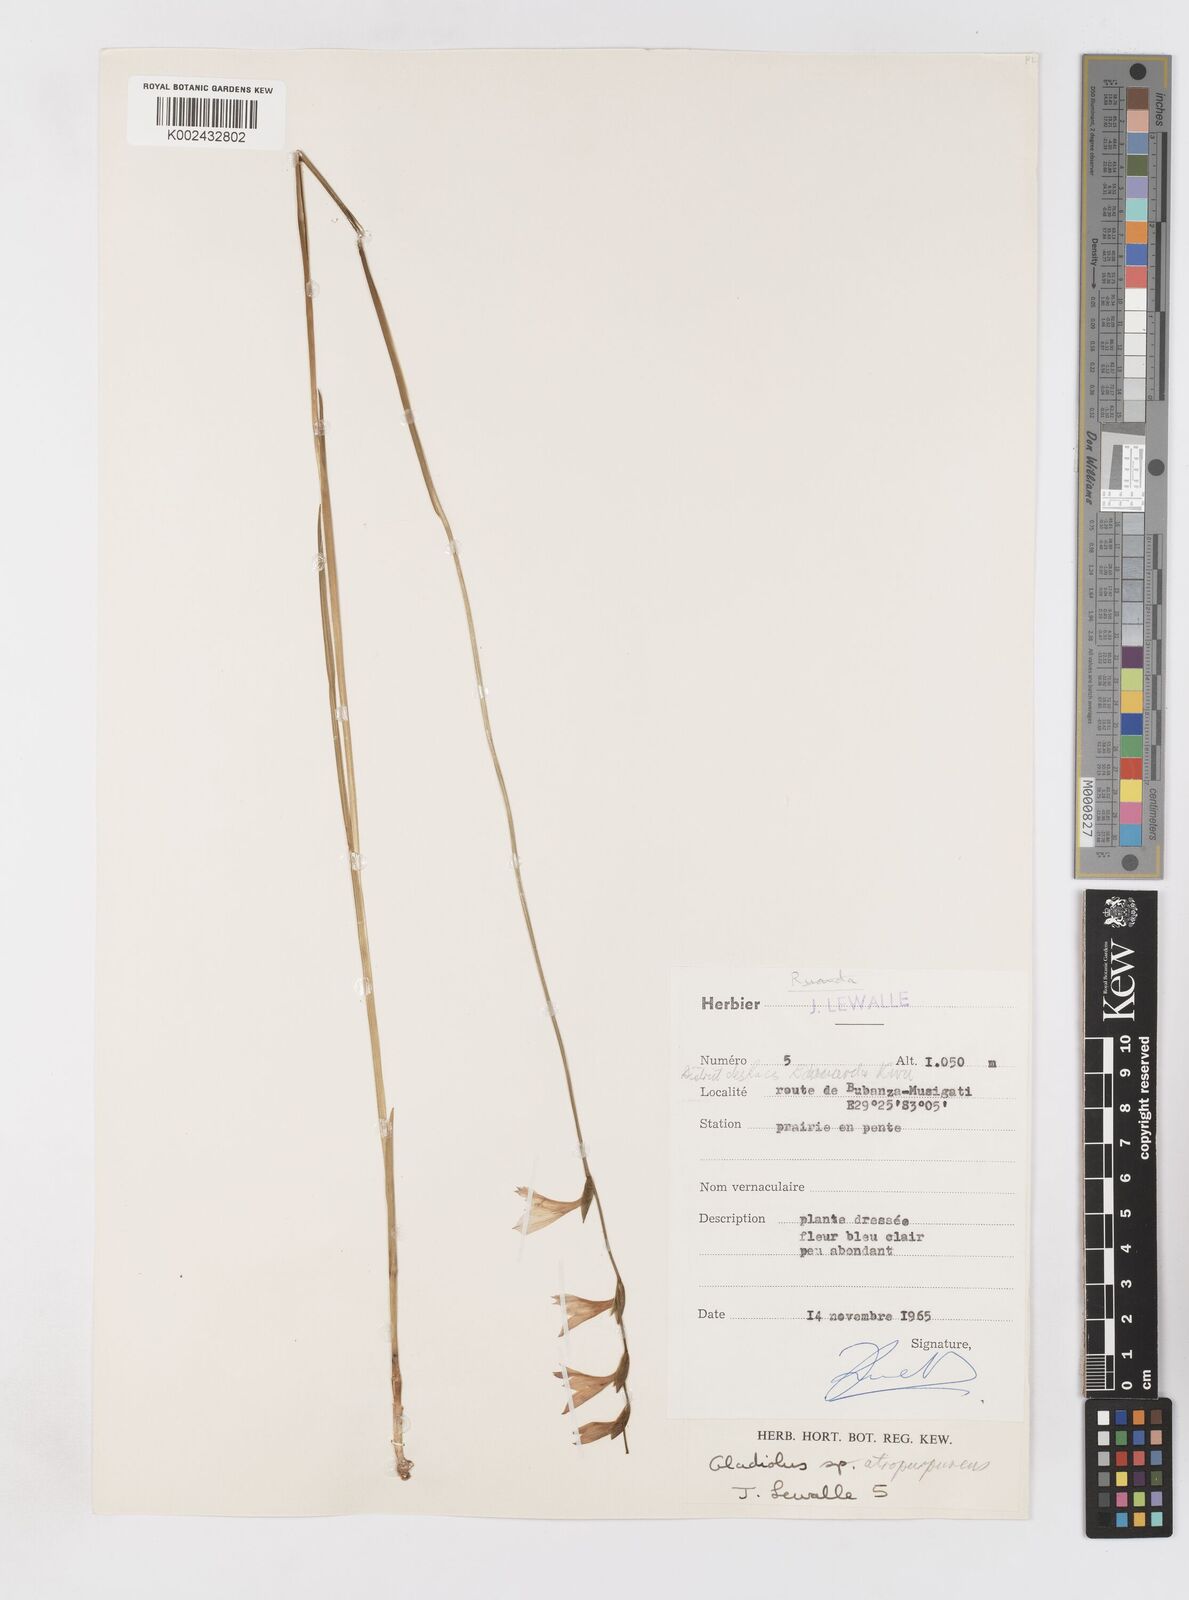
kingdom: Plantae
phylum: Tracheophyta
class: Liliopsida
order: Asparagales
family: Iridaceae
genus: Gladiolus
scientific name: Gladiolus atropurpureus
